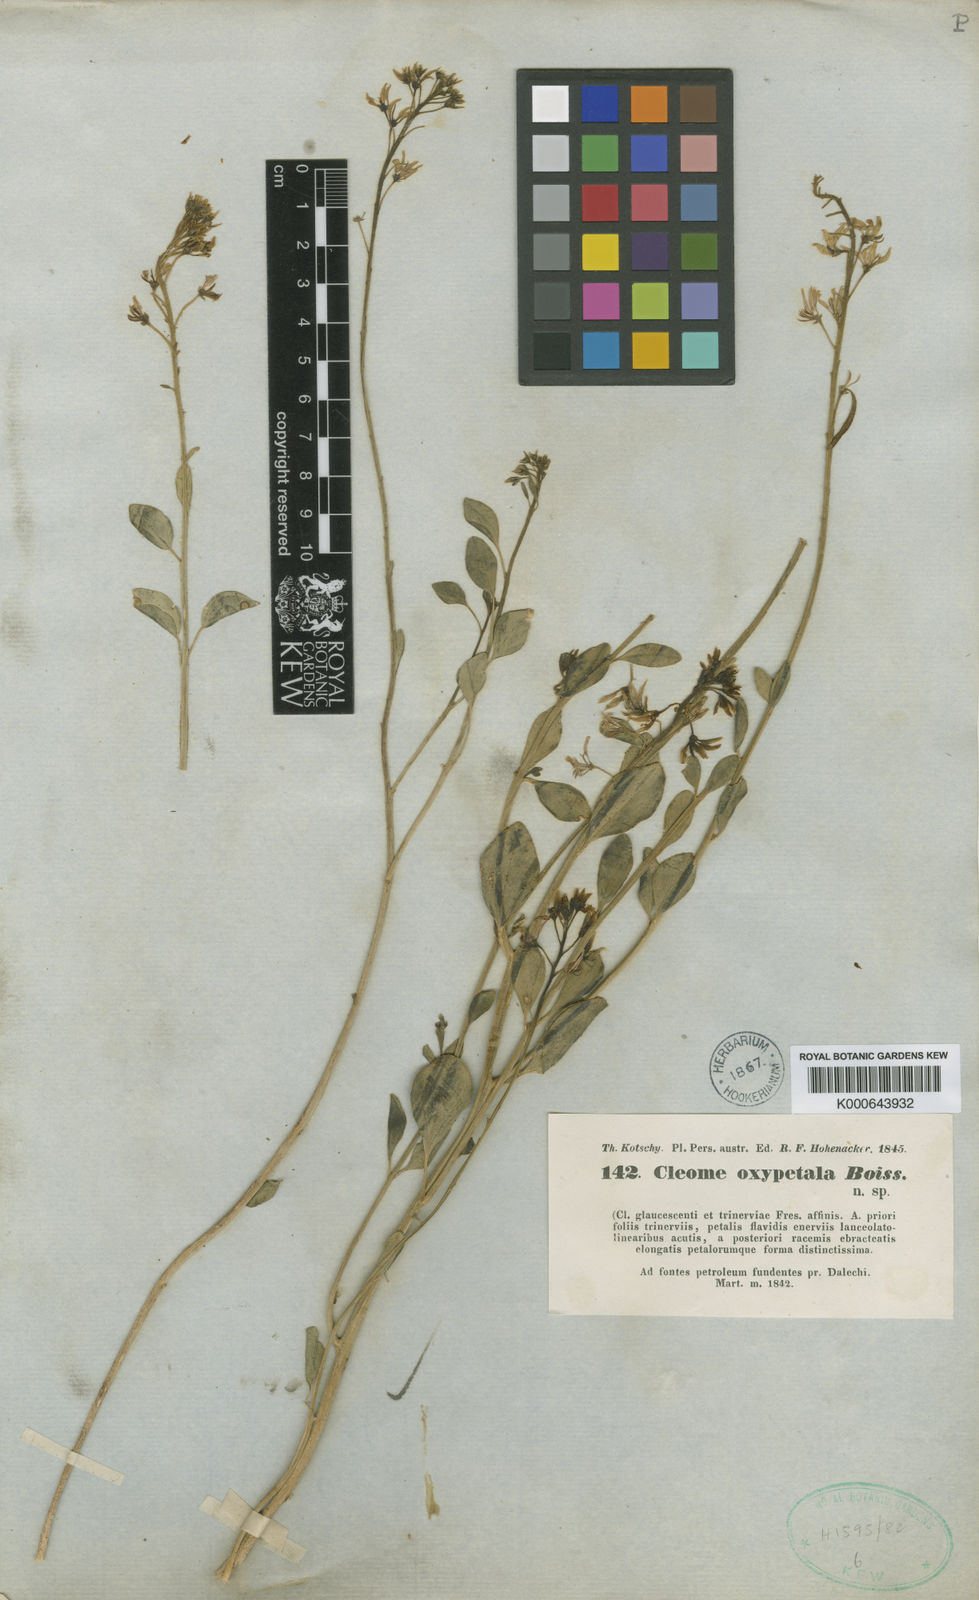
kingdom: Plantae
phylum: Tracheophyta
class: Magnoliopsida
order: Brassicales
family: Cleomaceae
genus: Cleome
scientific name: Cleome oxypetala
